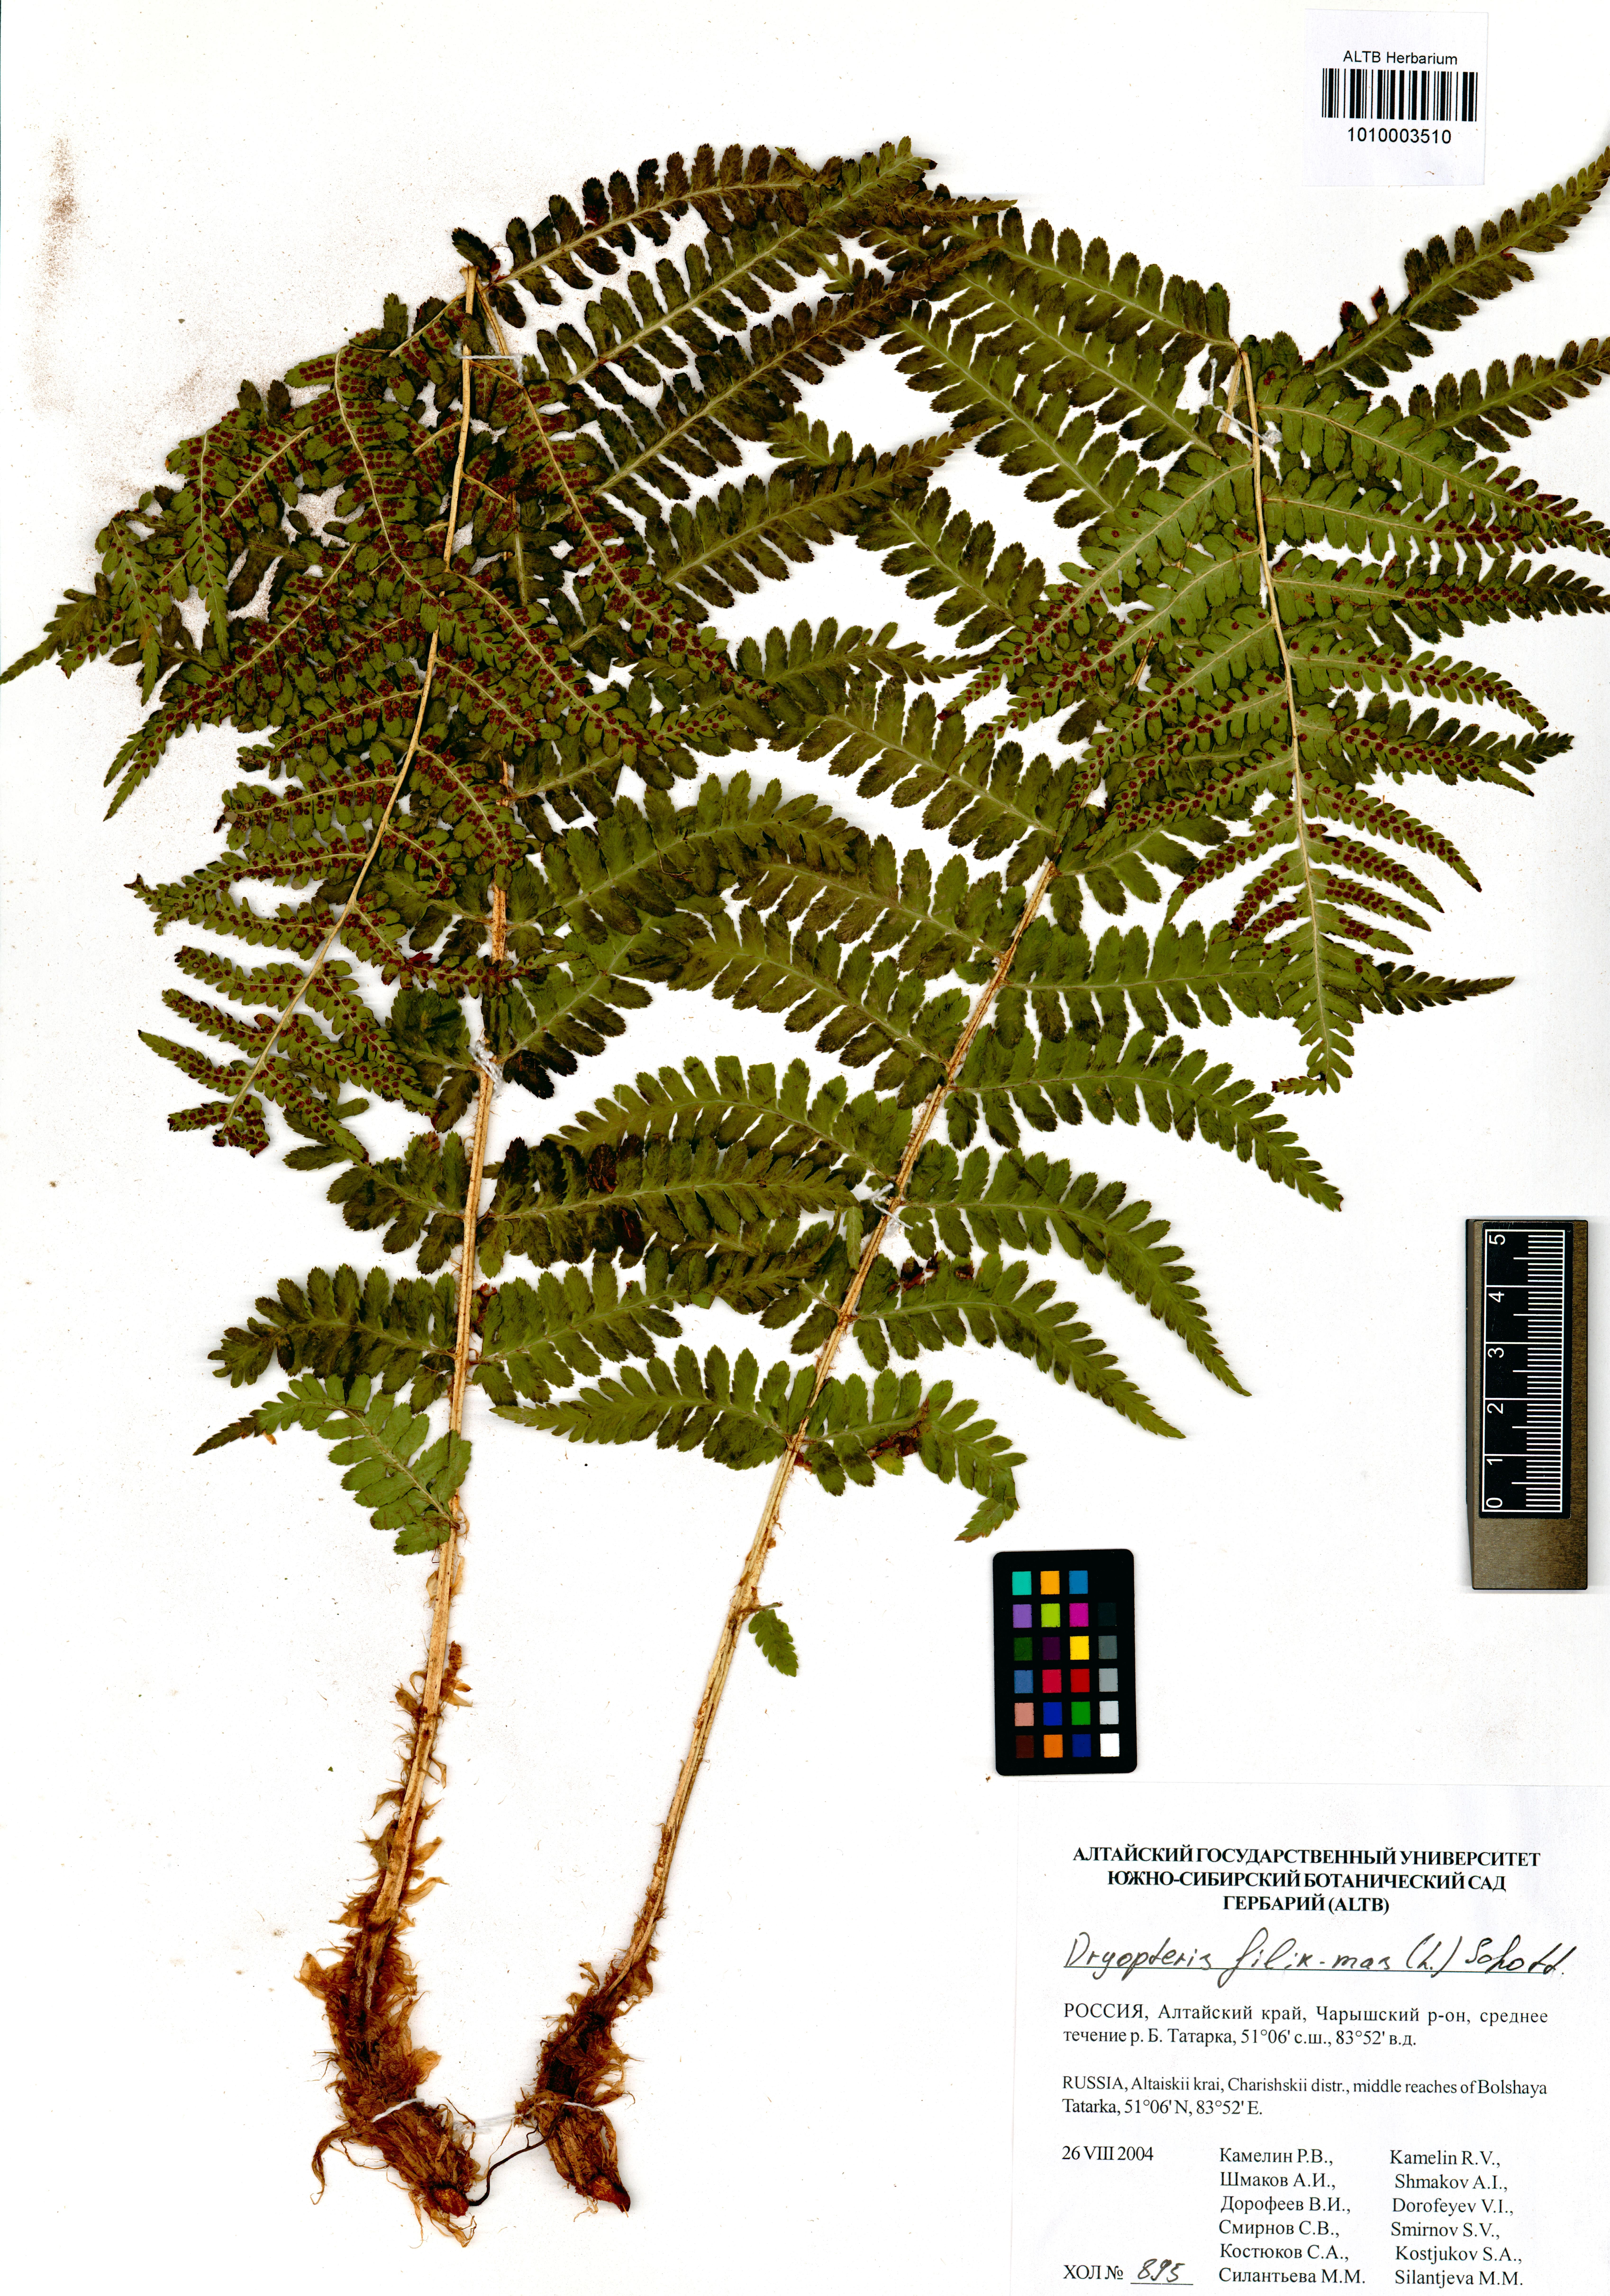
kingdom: Plantae
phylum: Tracheophyta
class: Polypodiopsida
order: Polypodiales
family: Dryopteridaceae
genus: Dryopteris
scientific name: Dryopteris filix-mas
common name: Male fern
